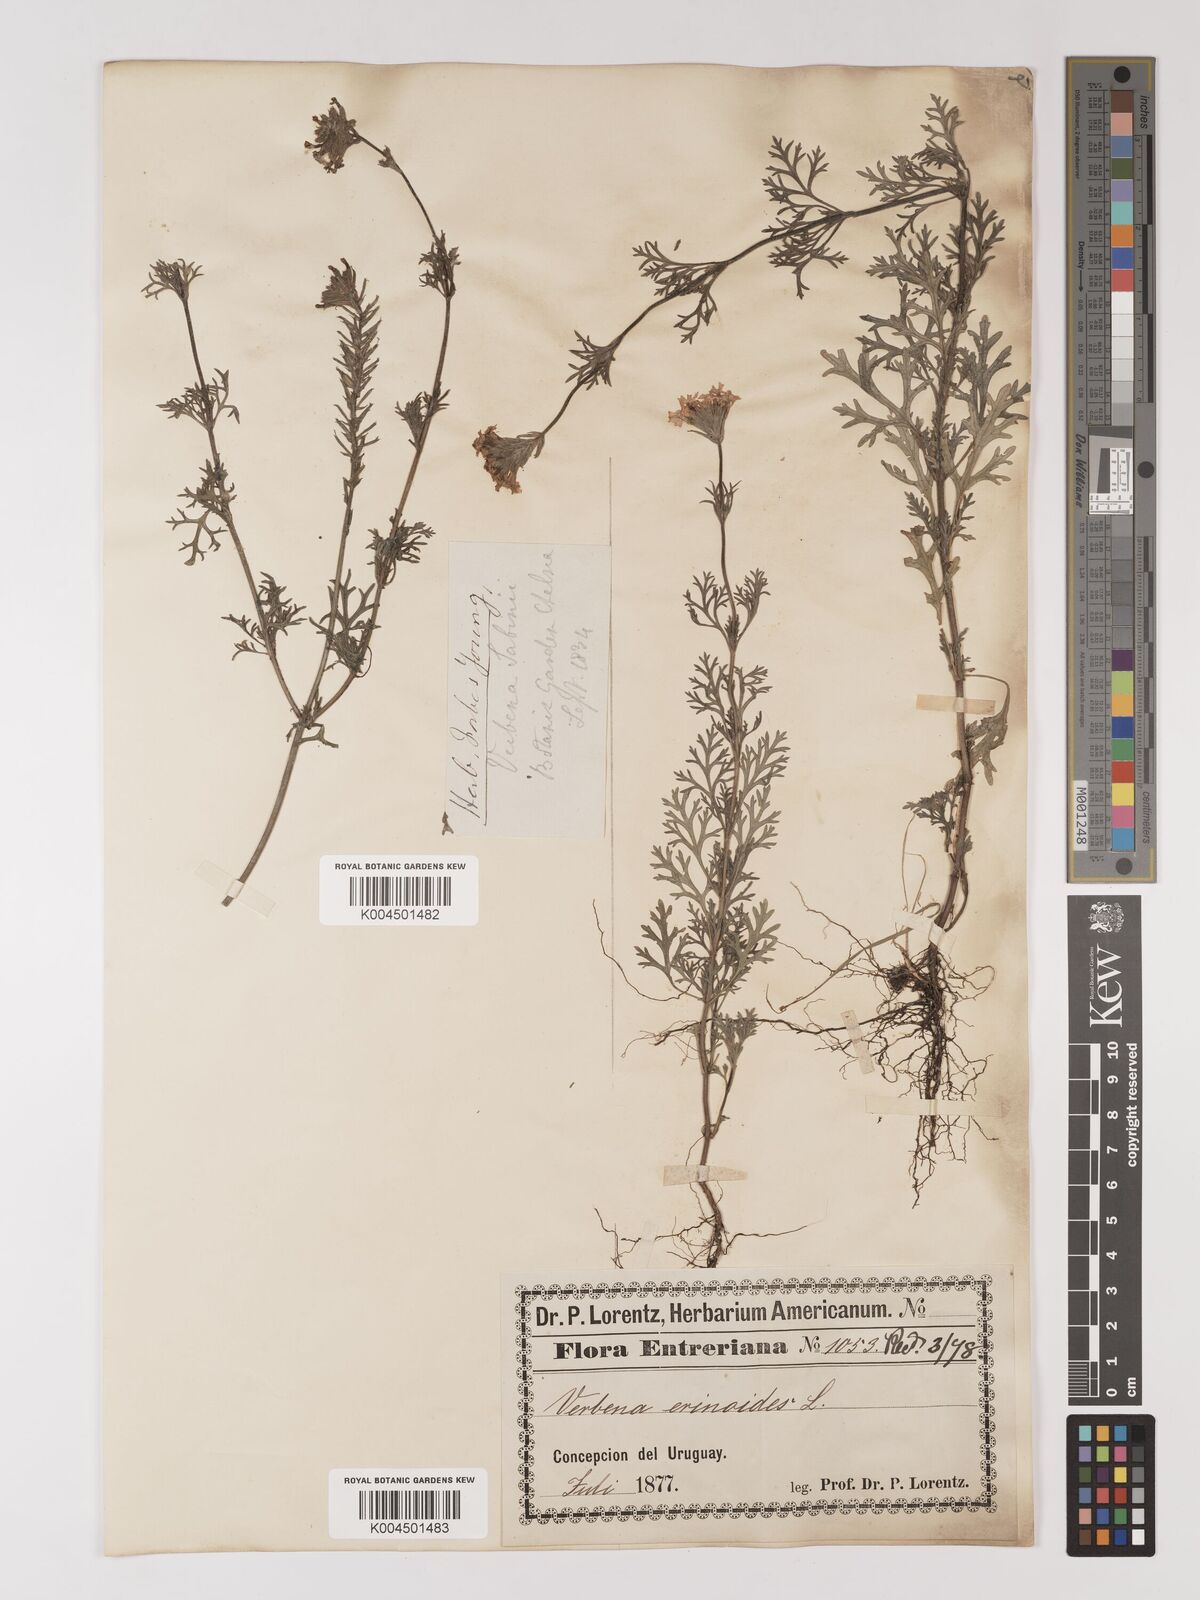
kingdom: Plantae
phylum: Tracheophyta
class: Magnoliopsida
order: Lamiales
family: Verbenaceae
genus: Verbena
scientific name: Verbena tenera
